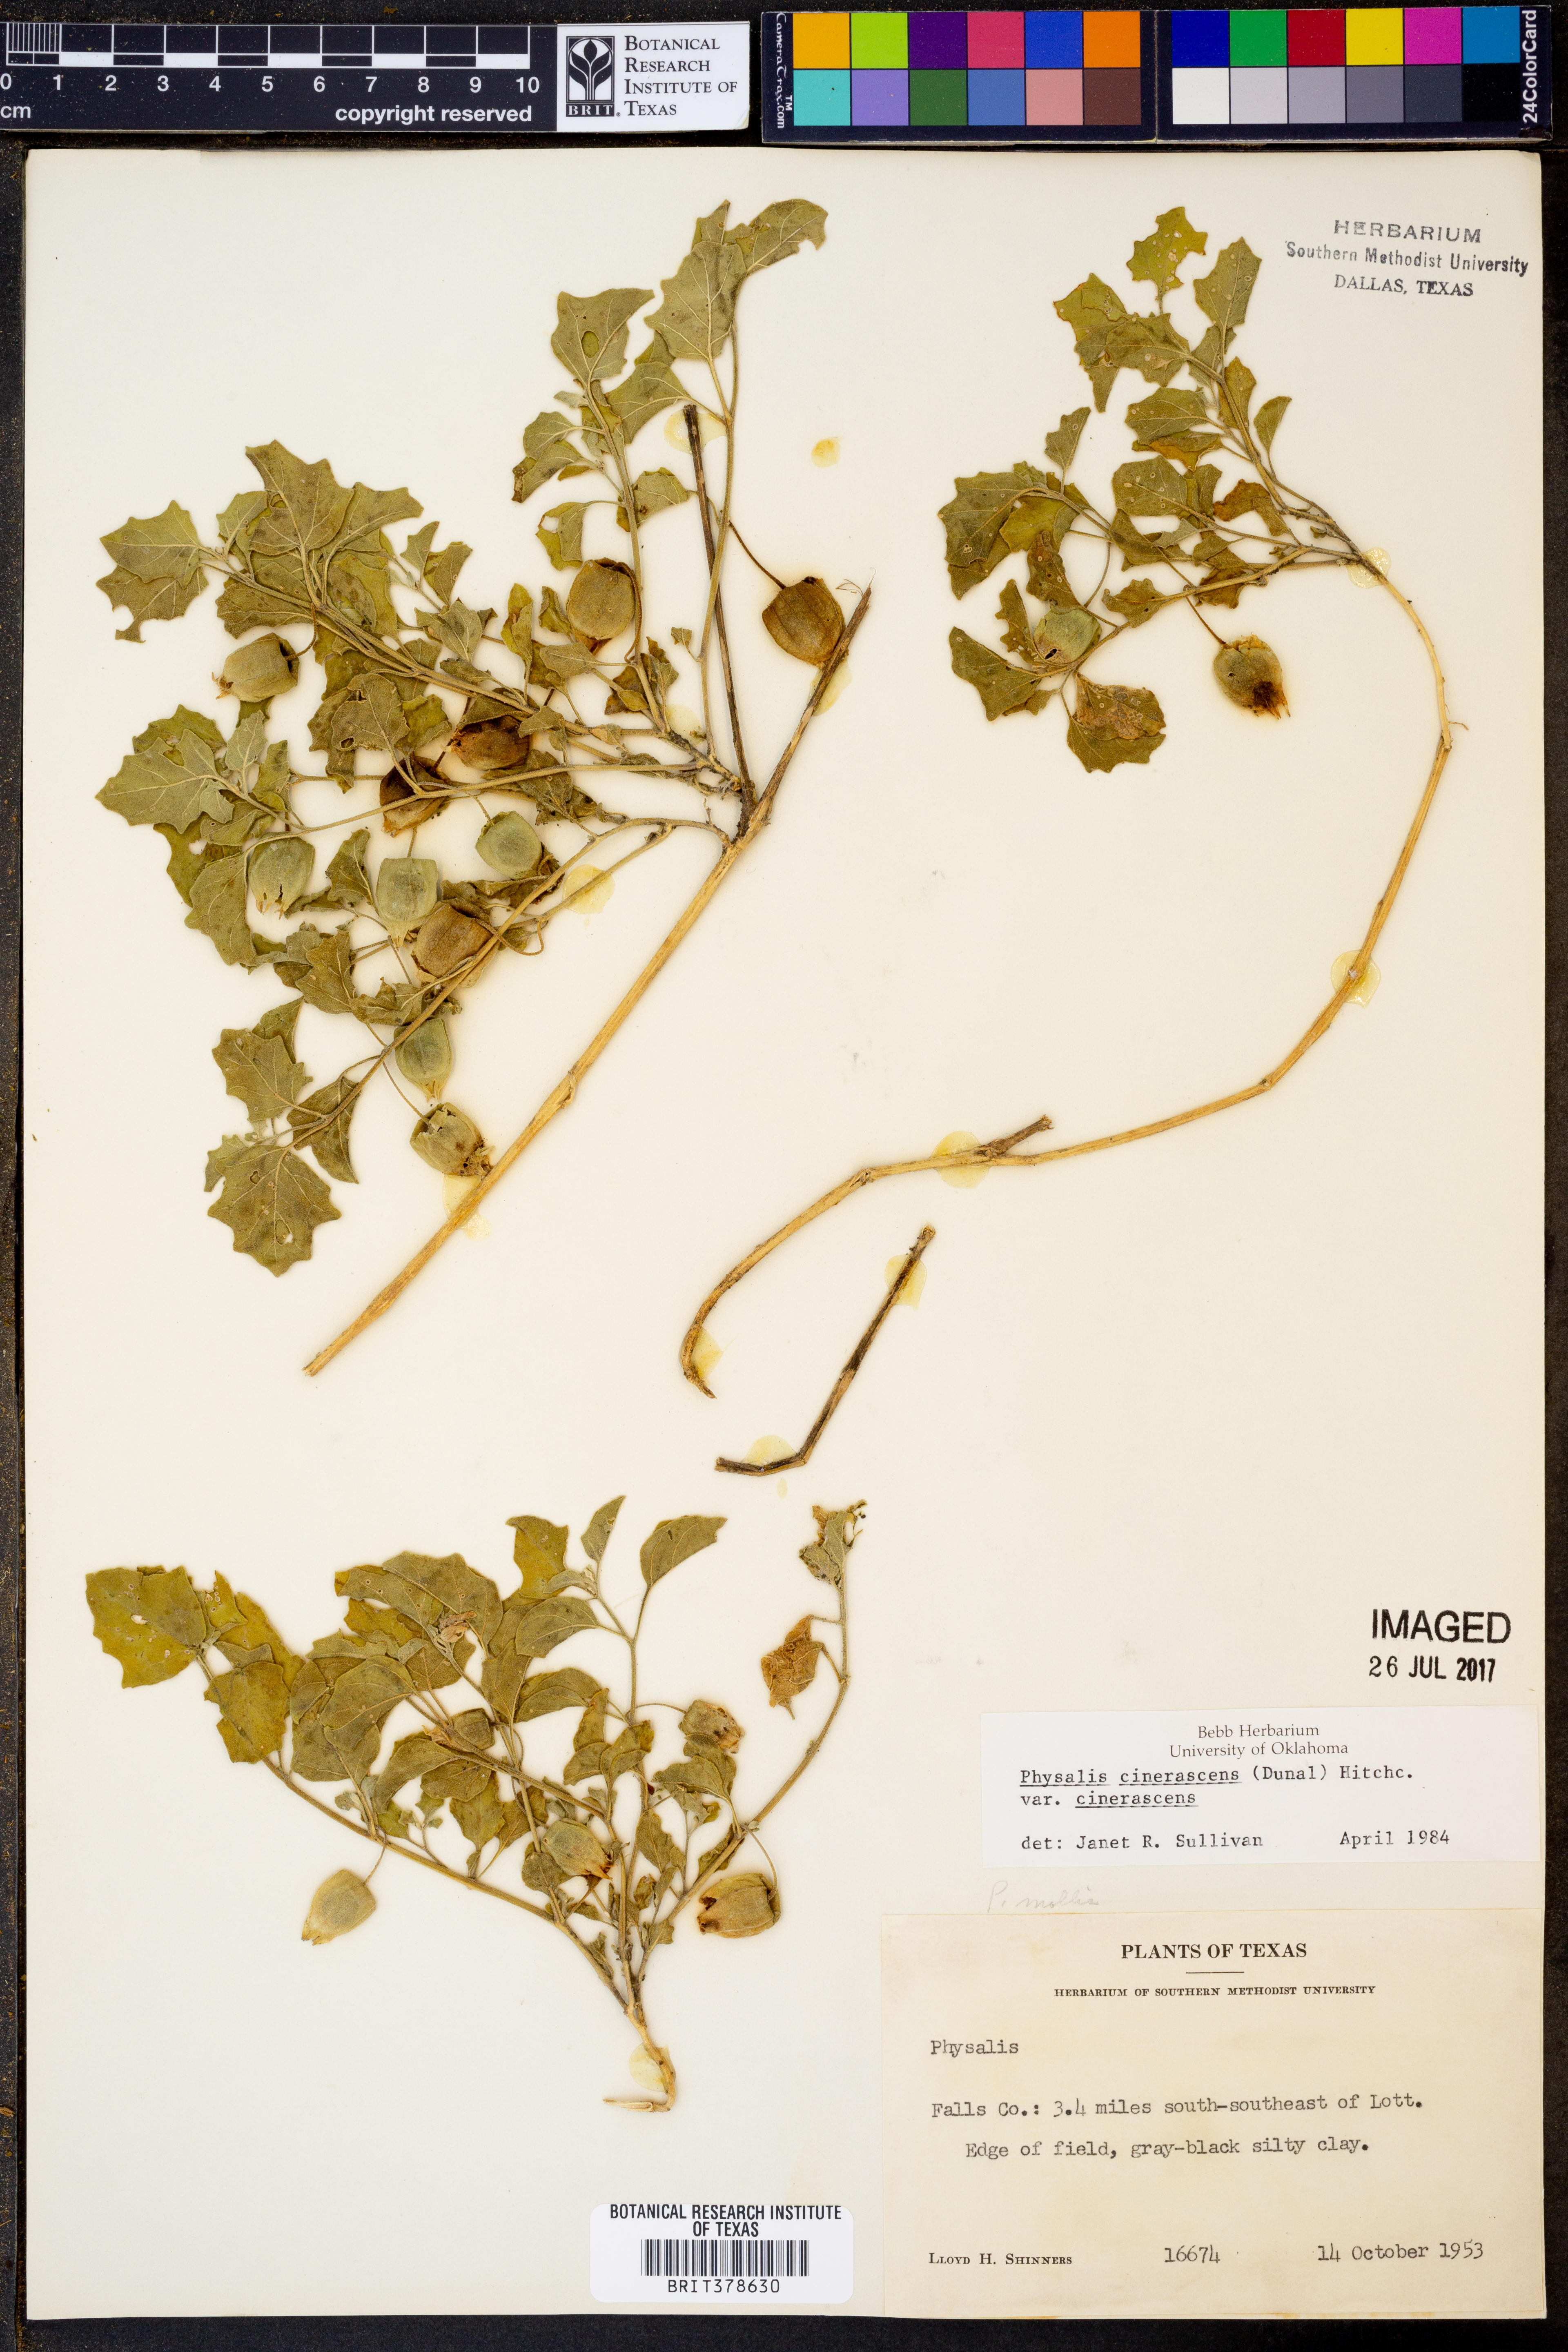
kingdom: Plantae
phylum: Tracheophyta
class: Magnoliopsida
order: Solanales
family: Solanaceae
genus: Physalis
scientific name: Physalis cinerascens
